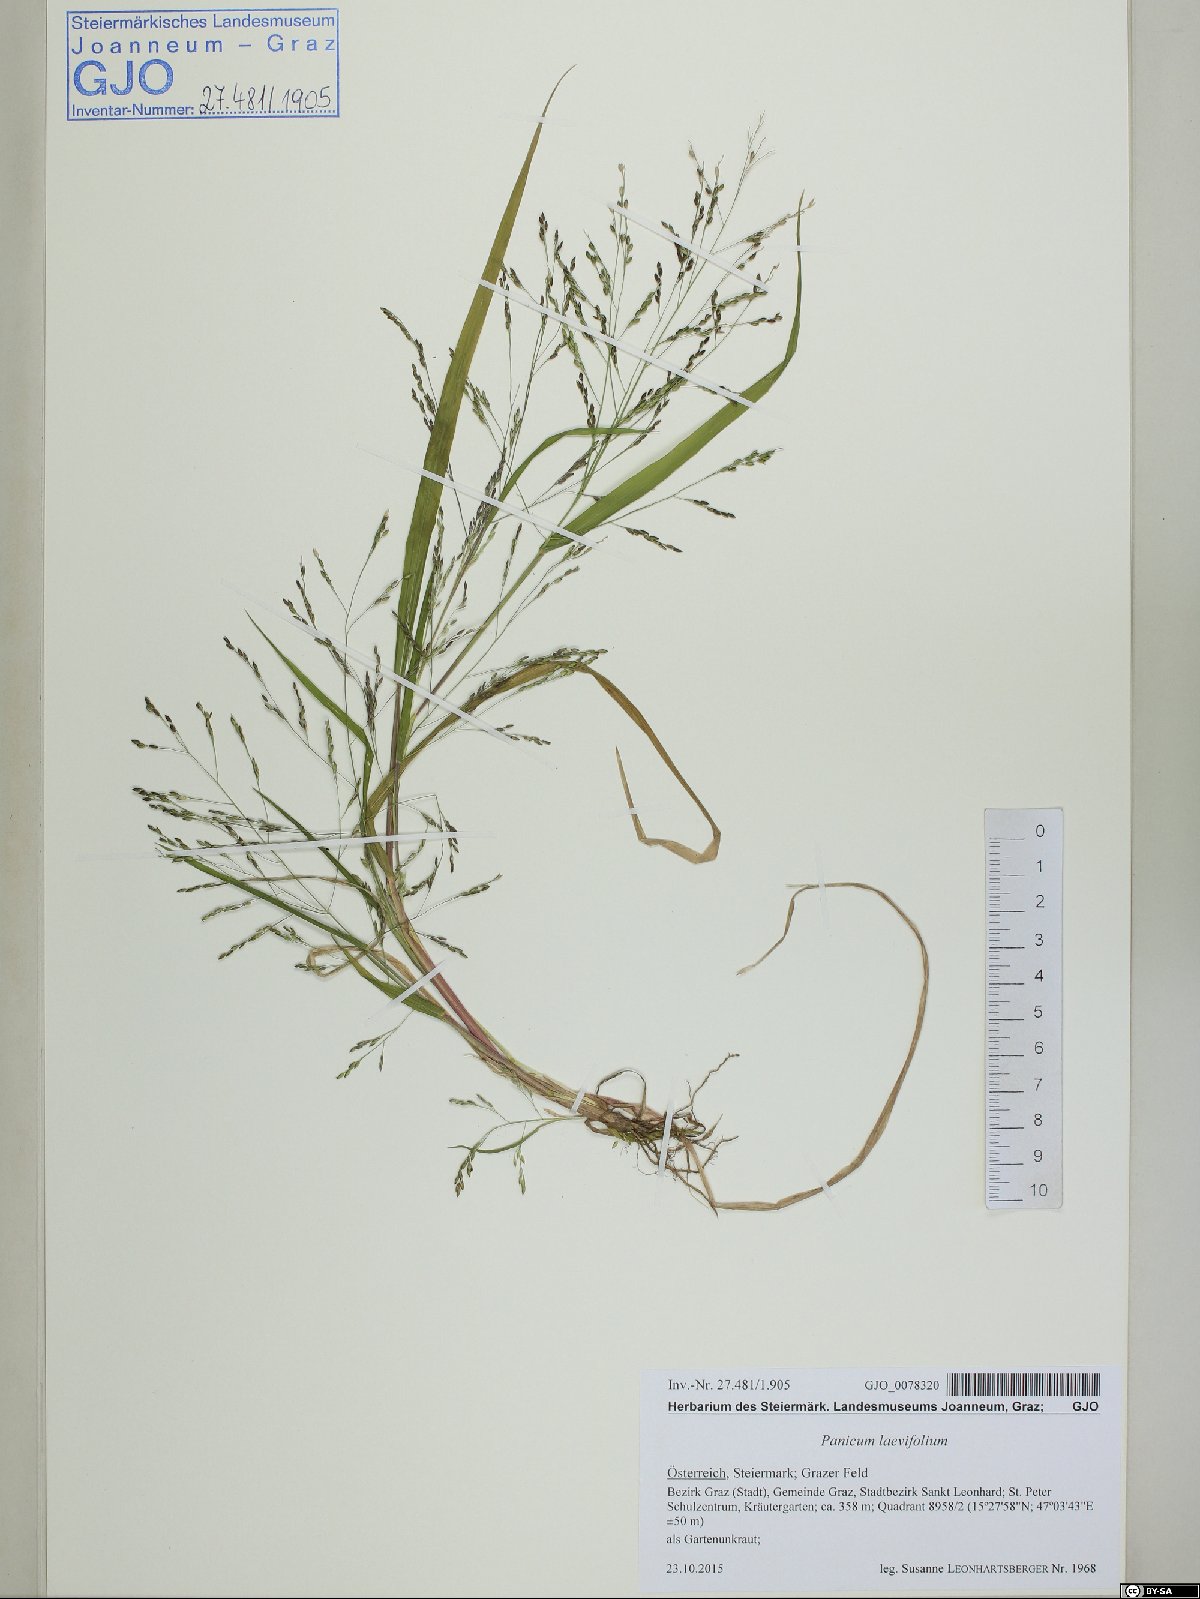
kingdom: Plantae
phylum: Tracheophyta
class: Liliopsida
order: Poales
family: Poaceae
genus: Panicum
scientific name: Panicum schinzii
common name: Sweet grass
